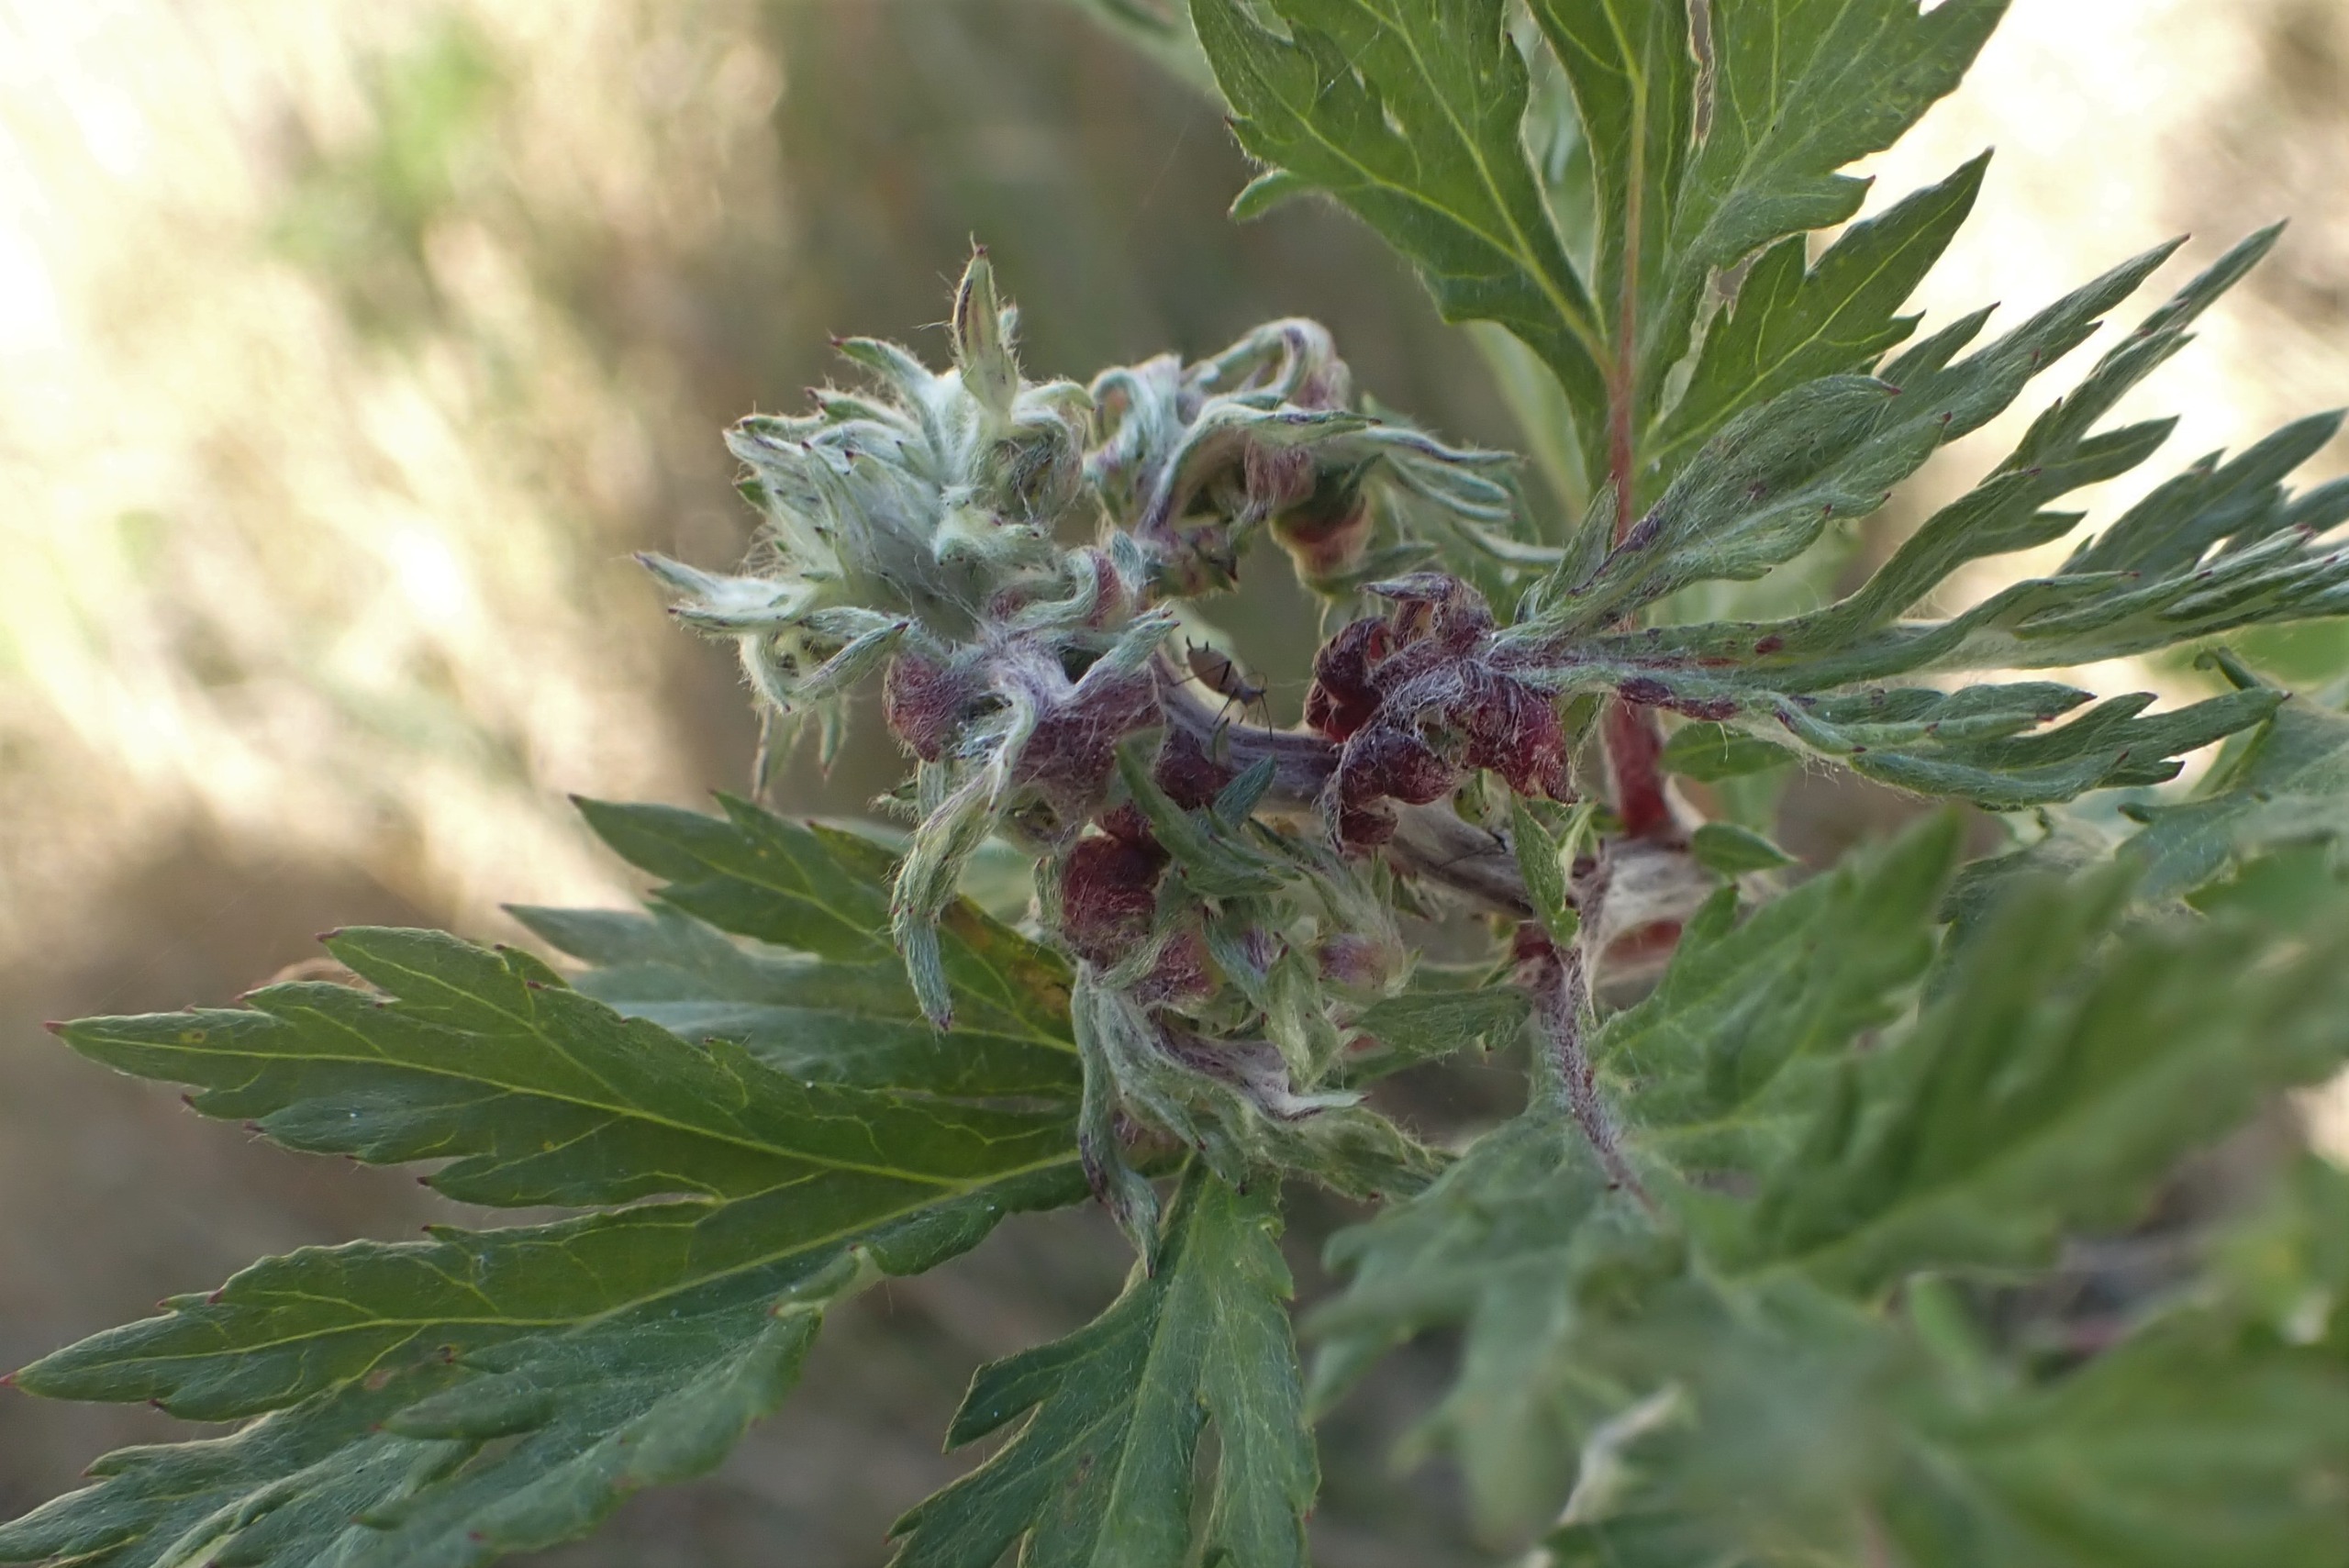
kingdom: Animalia
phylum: Arthropoda
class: Insecta
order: Hemiptera
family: Aphididae
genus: Cryptosiphum
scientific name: Cryptosiphum artemisiae
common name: Bynkegallelus
